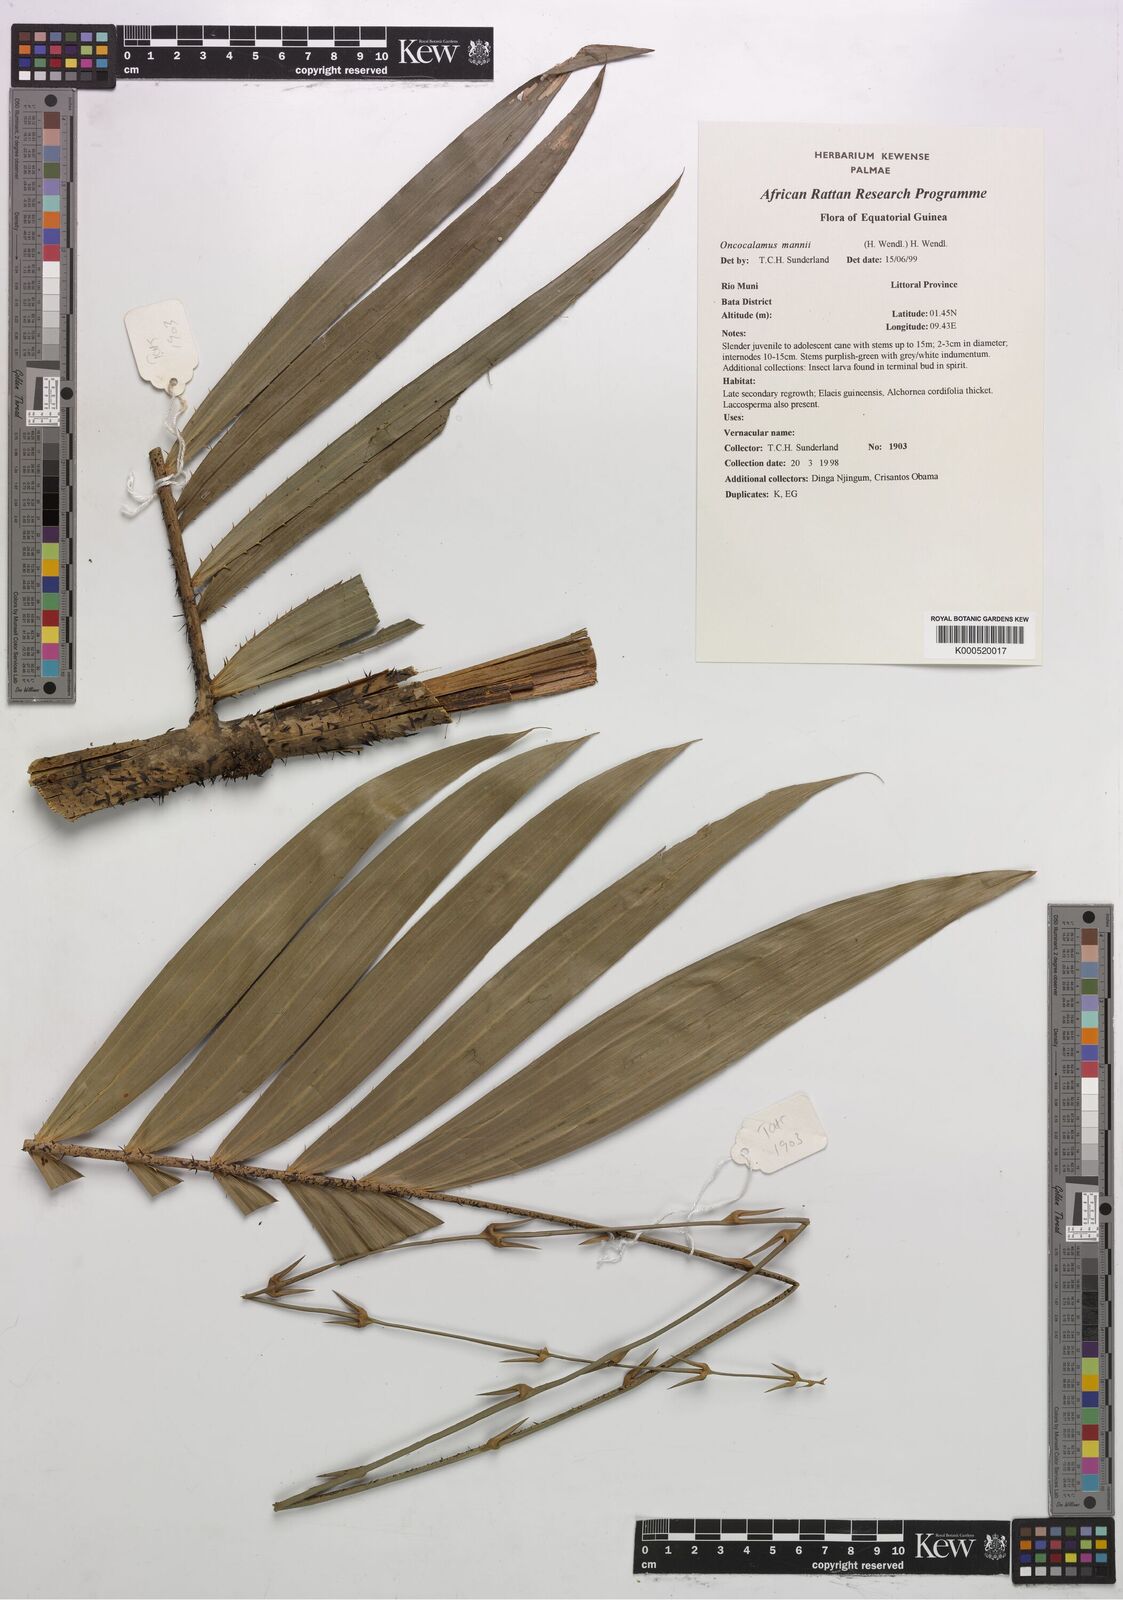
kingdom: Plantae
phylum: Tracheophyta
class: Liliopsida
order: Arecales
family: Arecaceae
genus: Oncocalamus
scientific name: Oncocalamus mannii
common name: Rattan
